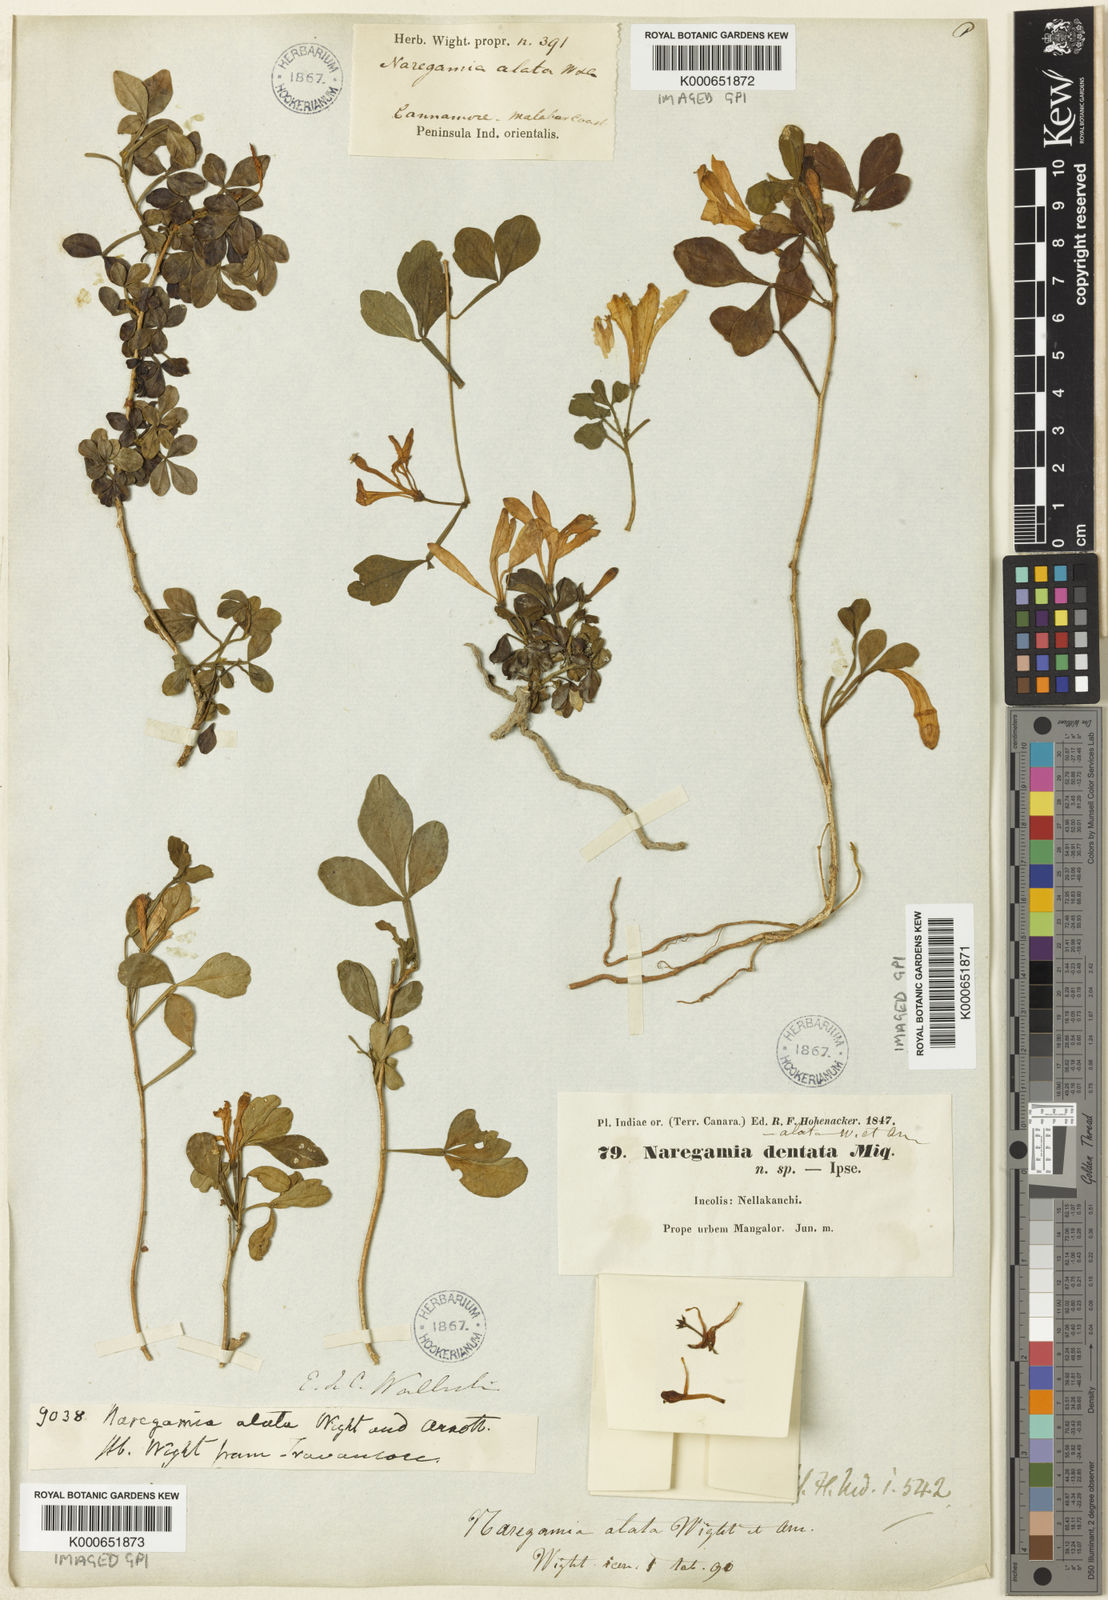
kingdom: Plantae
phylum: Tracheophyta
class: Magnoliopsida
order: Sapindales
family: Meliaceae
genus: Naregamia
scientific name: Naregamia alata
